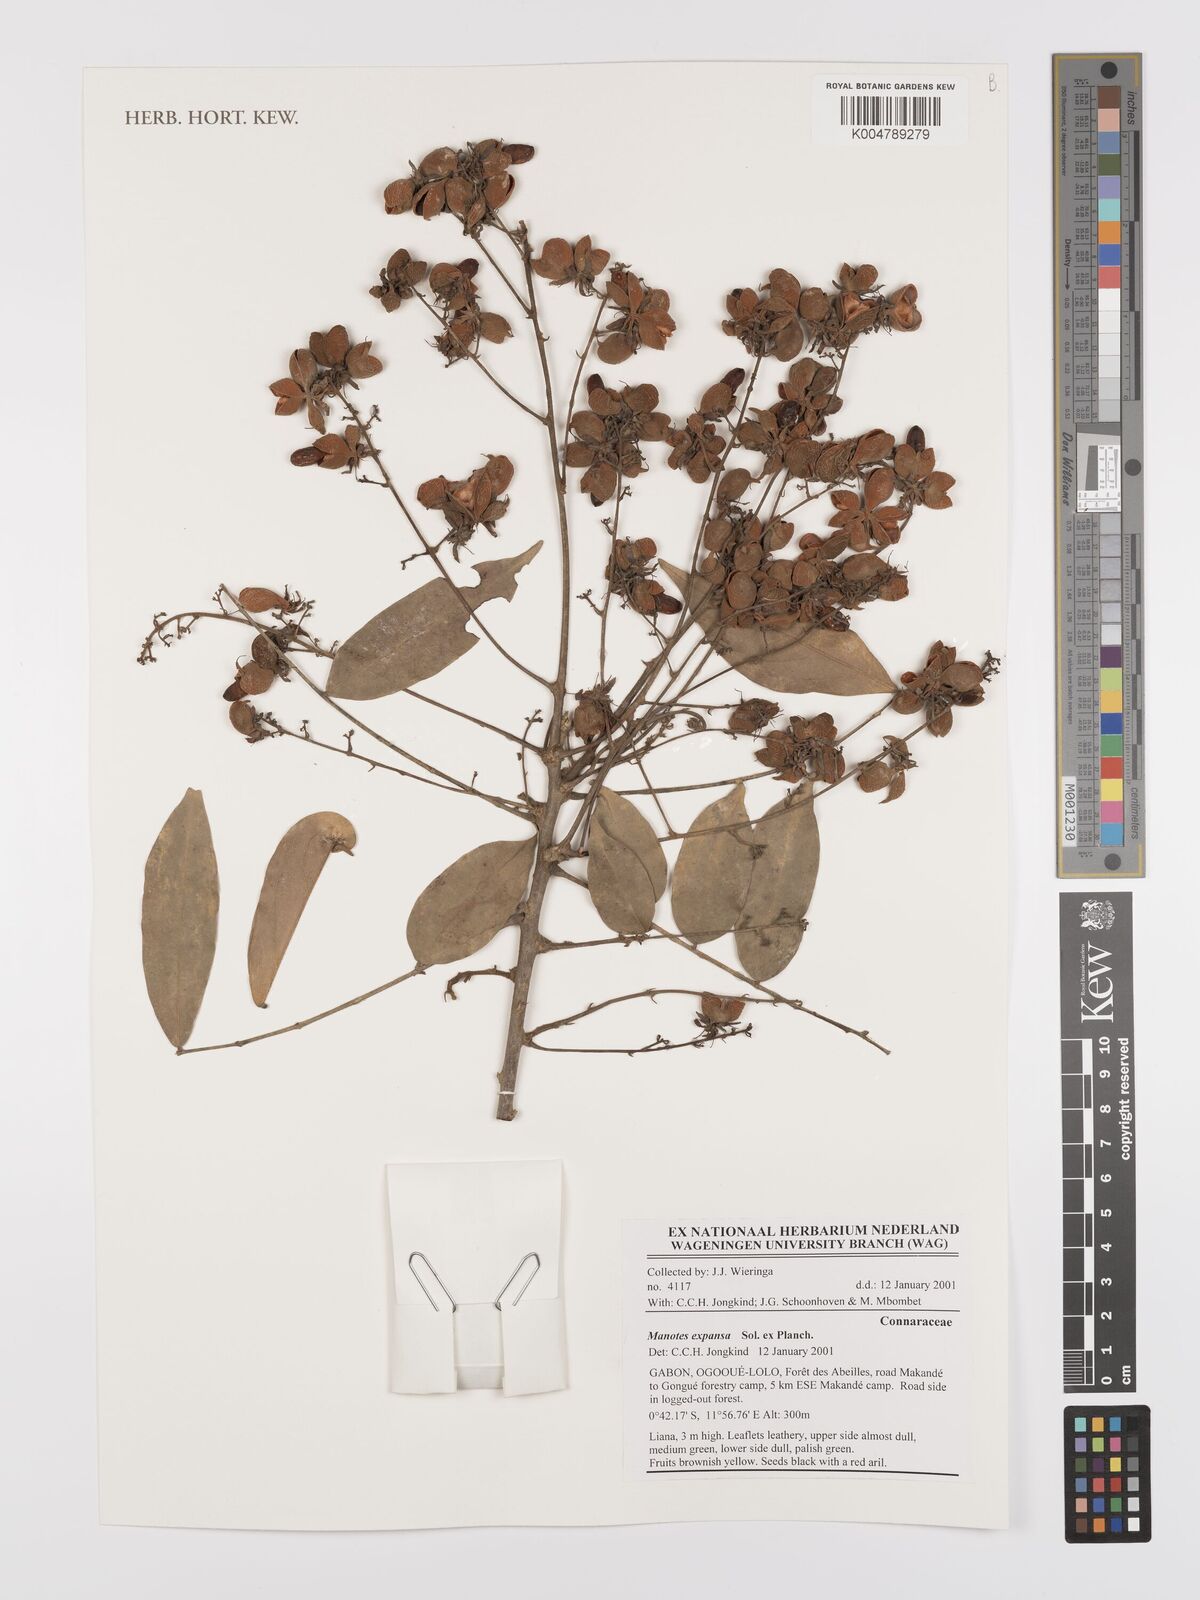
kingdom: Plantae
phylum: Tracheophyta
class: Magnoliopsida
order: Oxalidales
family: Connaraceae
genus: Manotes
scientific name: Manotes expansa
